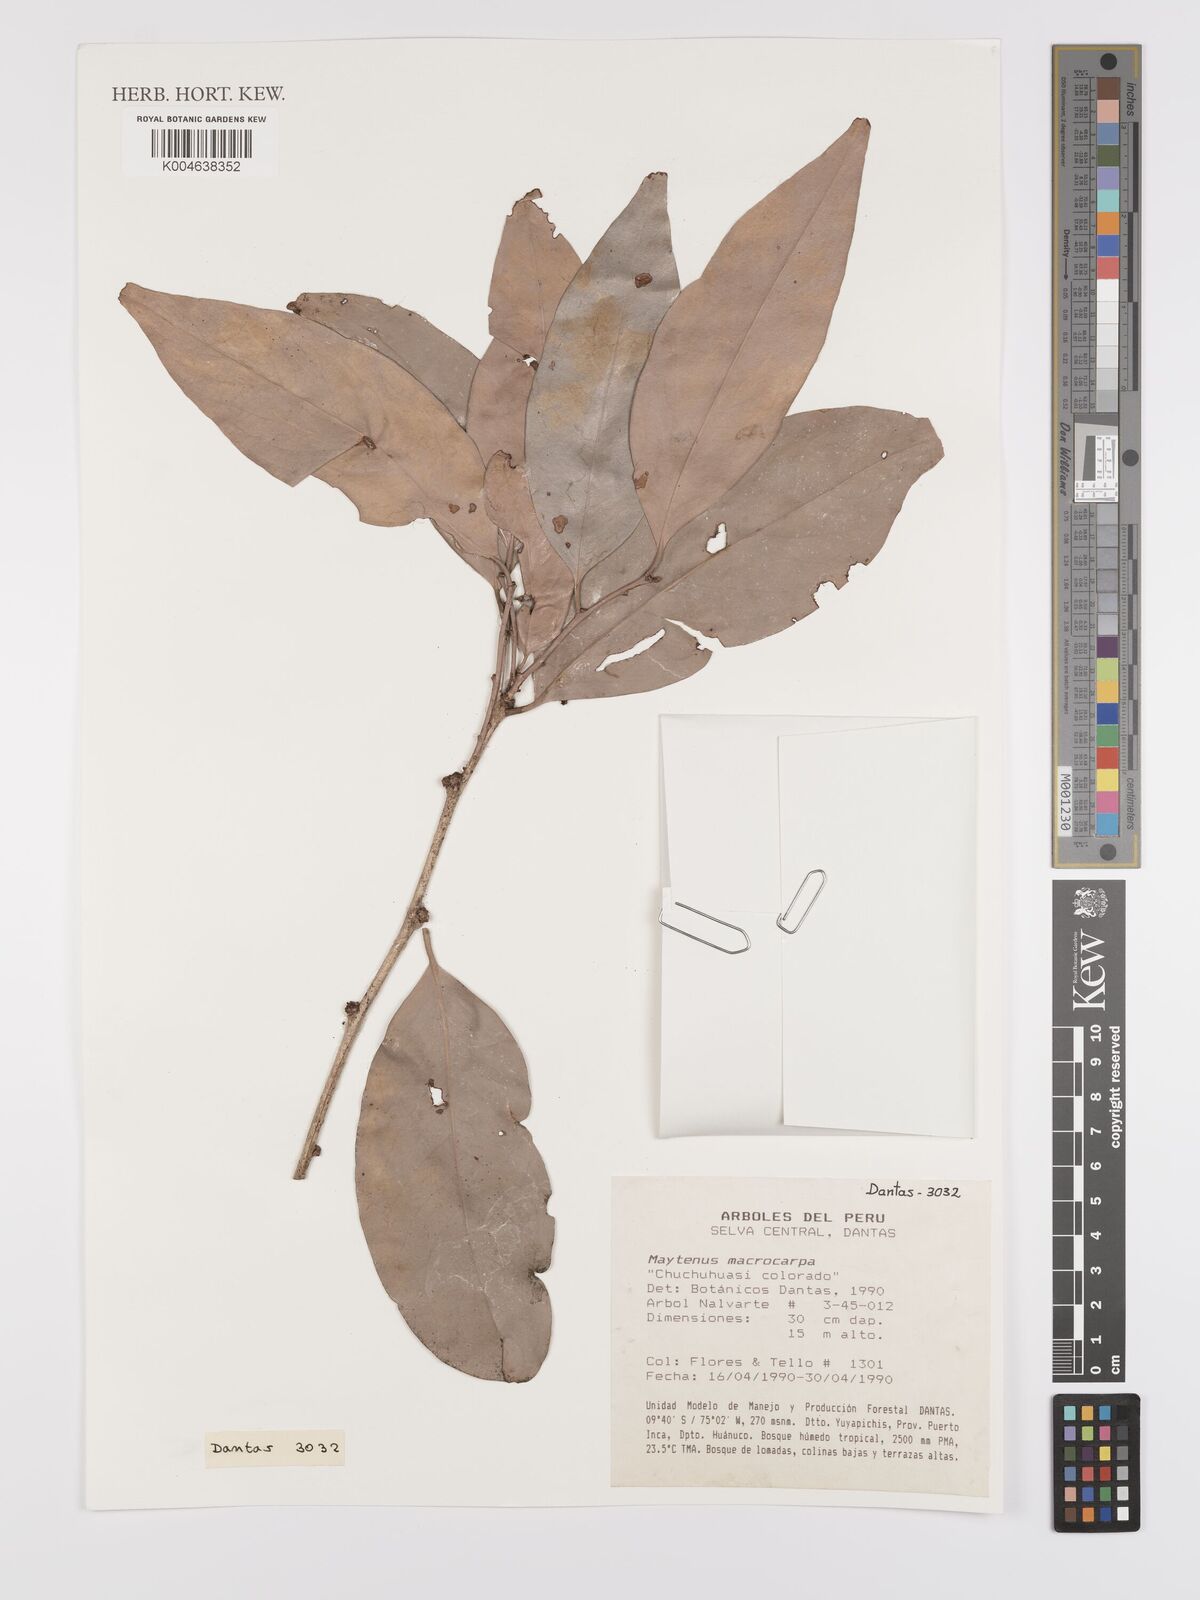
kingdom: Plantae
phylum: Tracheophyta
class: Magnoliopsida
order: Celastrales
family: Celastraceae
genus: Monteverdia
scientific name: Monteverdia macrocarpa
